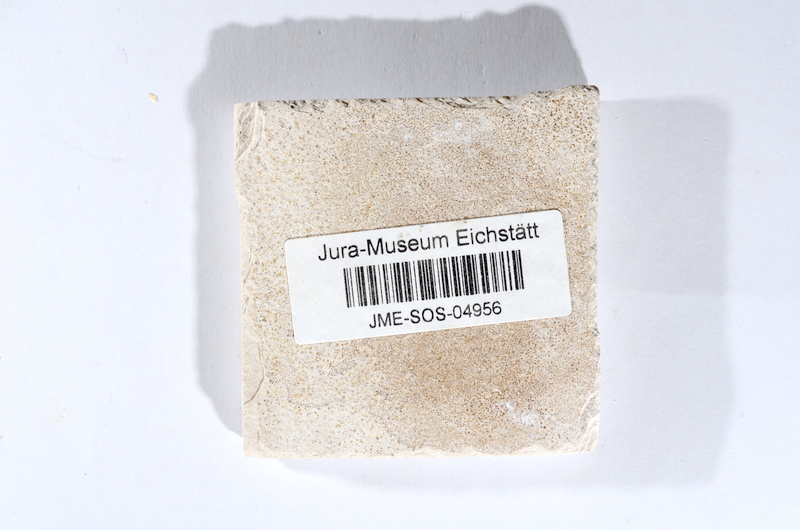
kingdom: Animalia
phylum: Chordata
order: Salmoniformes
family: Orthogonikleithridae
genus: Orthogonikleithrus
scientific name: Orthogonikleithrus hoelli
